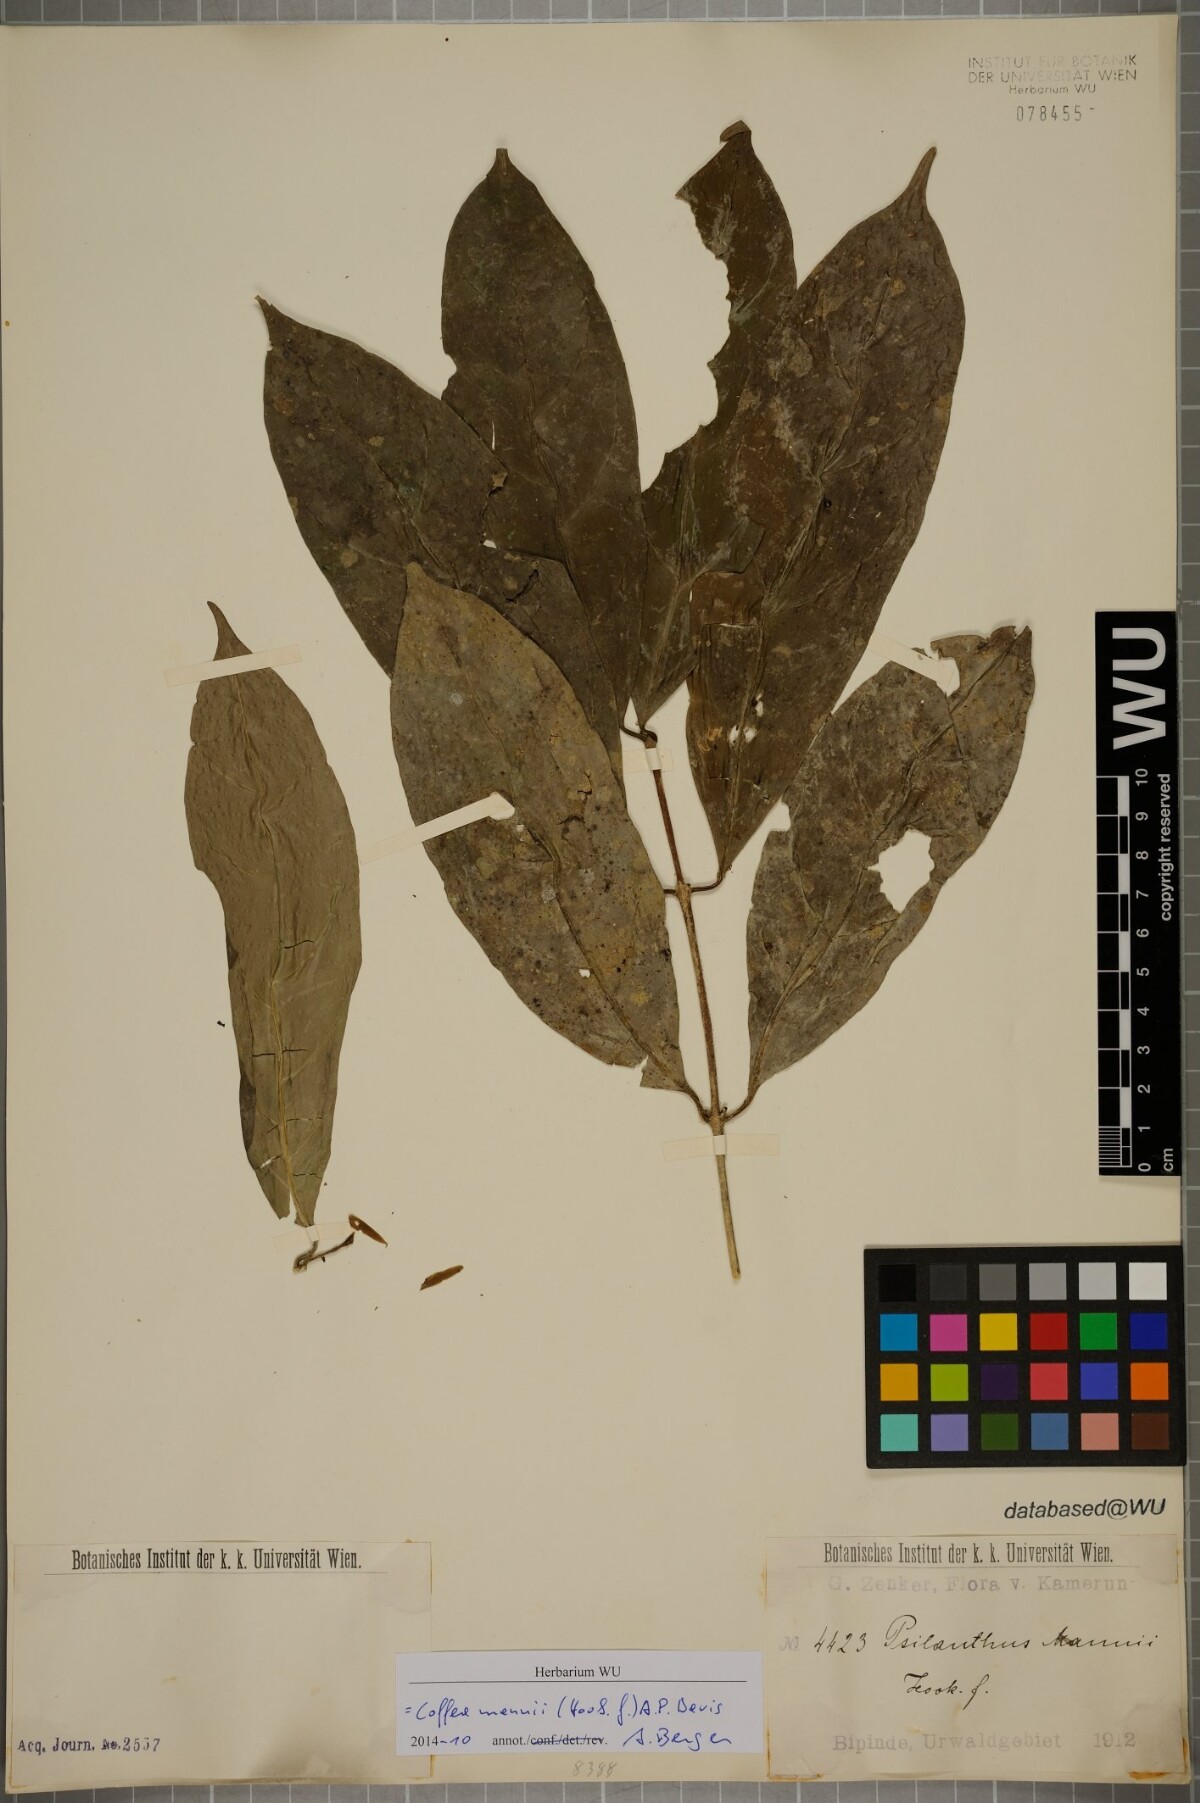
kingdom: Plantae
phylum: Tracheophyta
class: Magnoliopsida
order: Gentianales
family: Rubiaceae
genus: Coffea
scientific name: Coffea mannii
